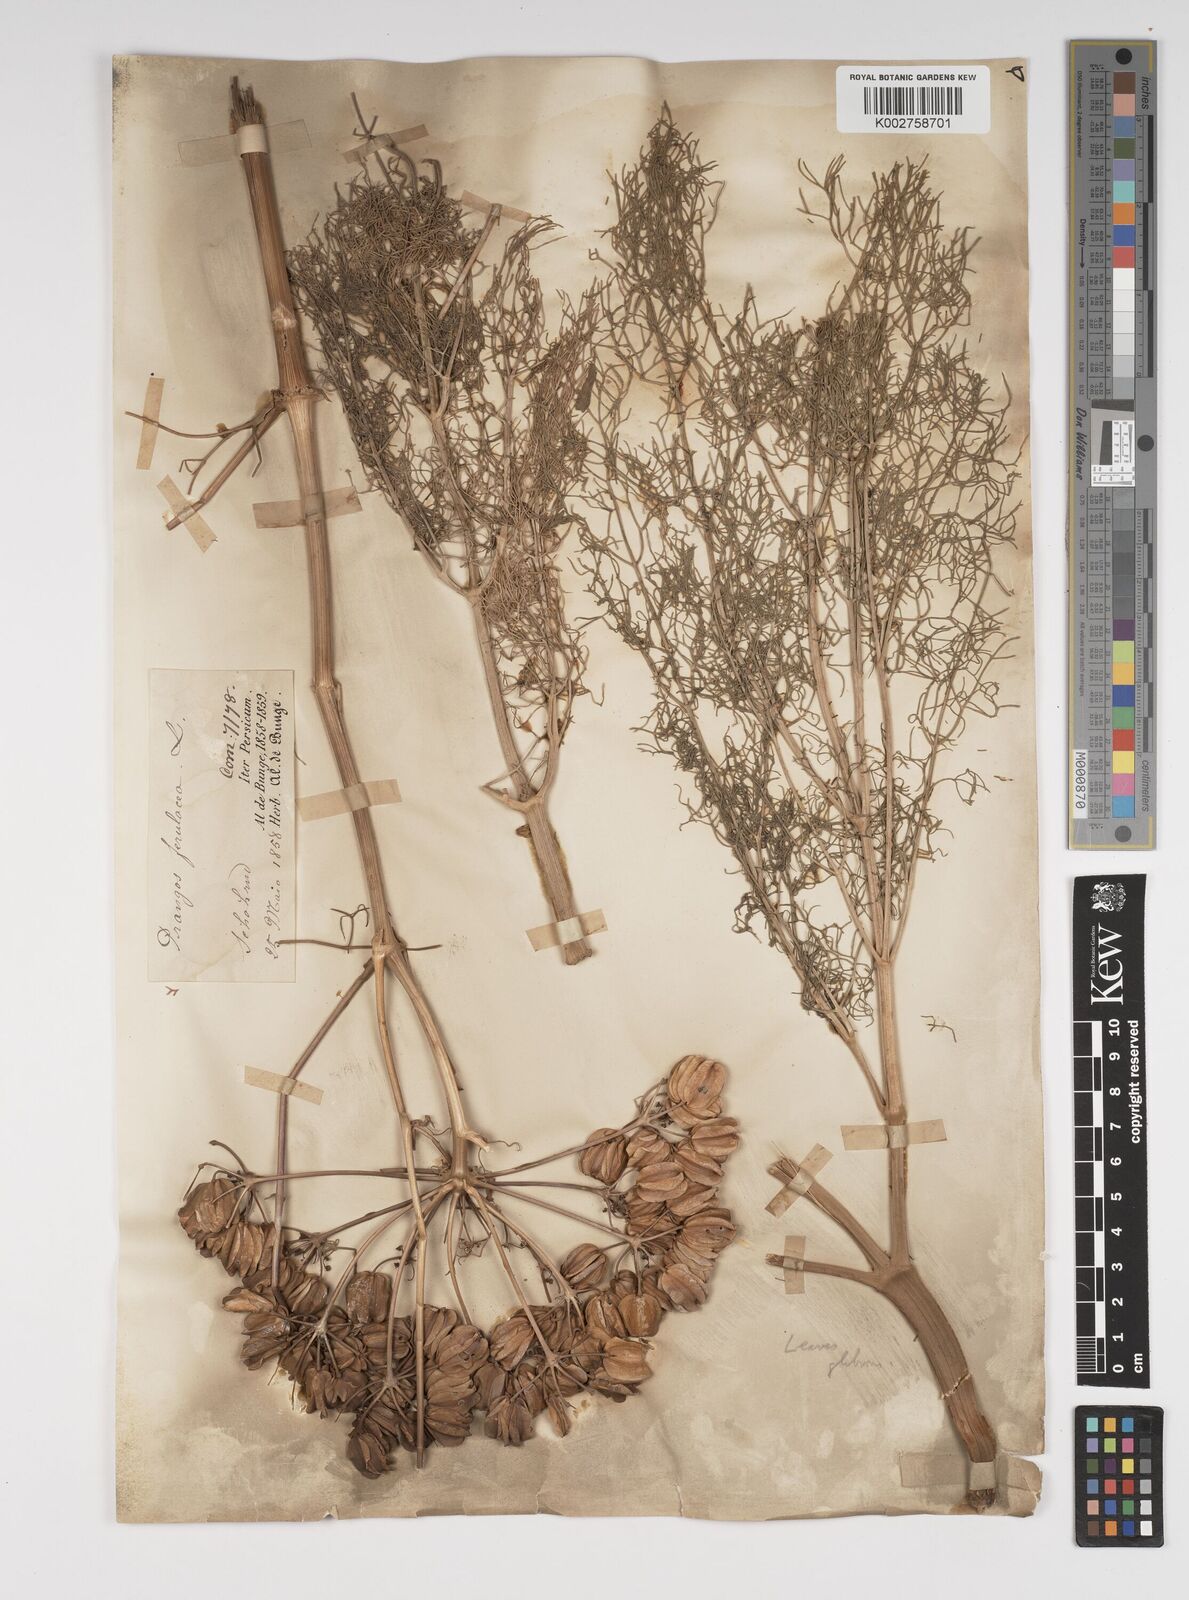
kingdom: Plantae
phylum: Tracheophyta
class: Magnoliopsida
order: Apiales
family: Apiaceae
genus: Prangos
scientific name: Prangos ferulacea
